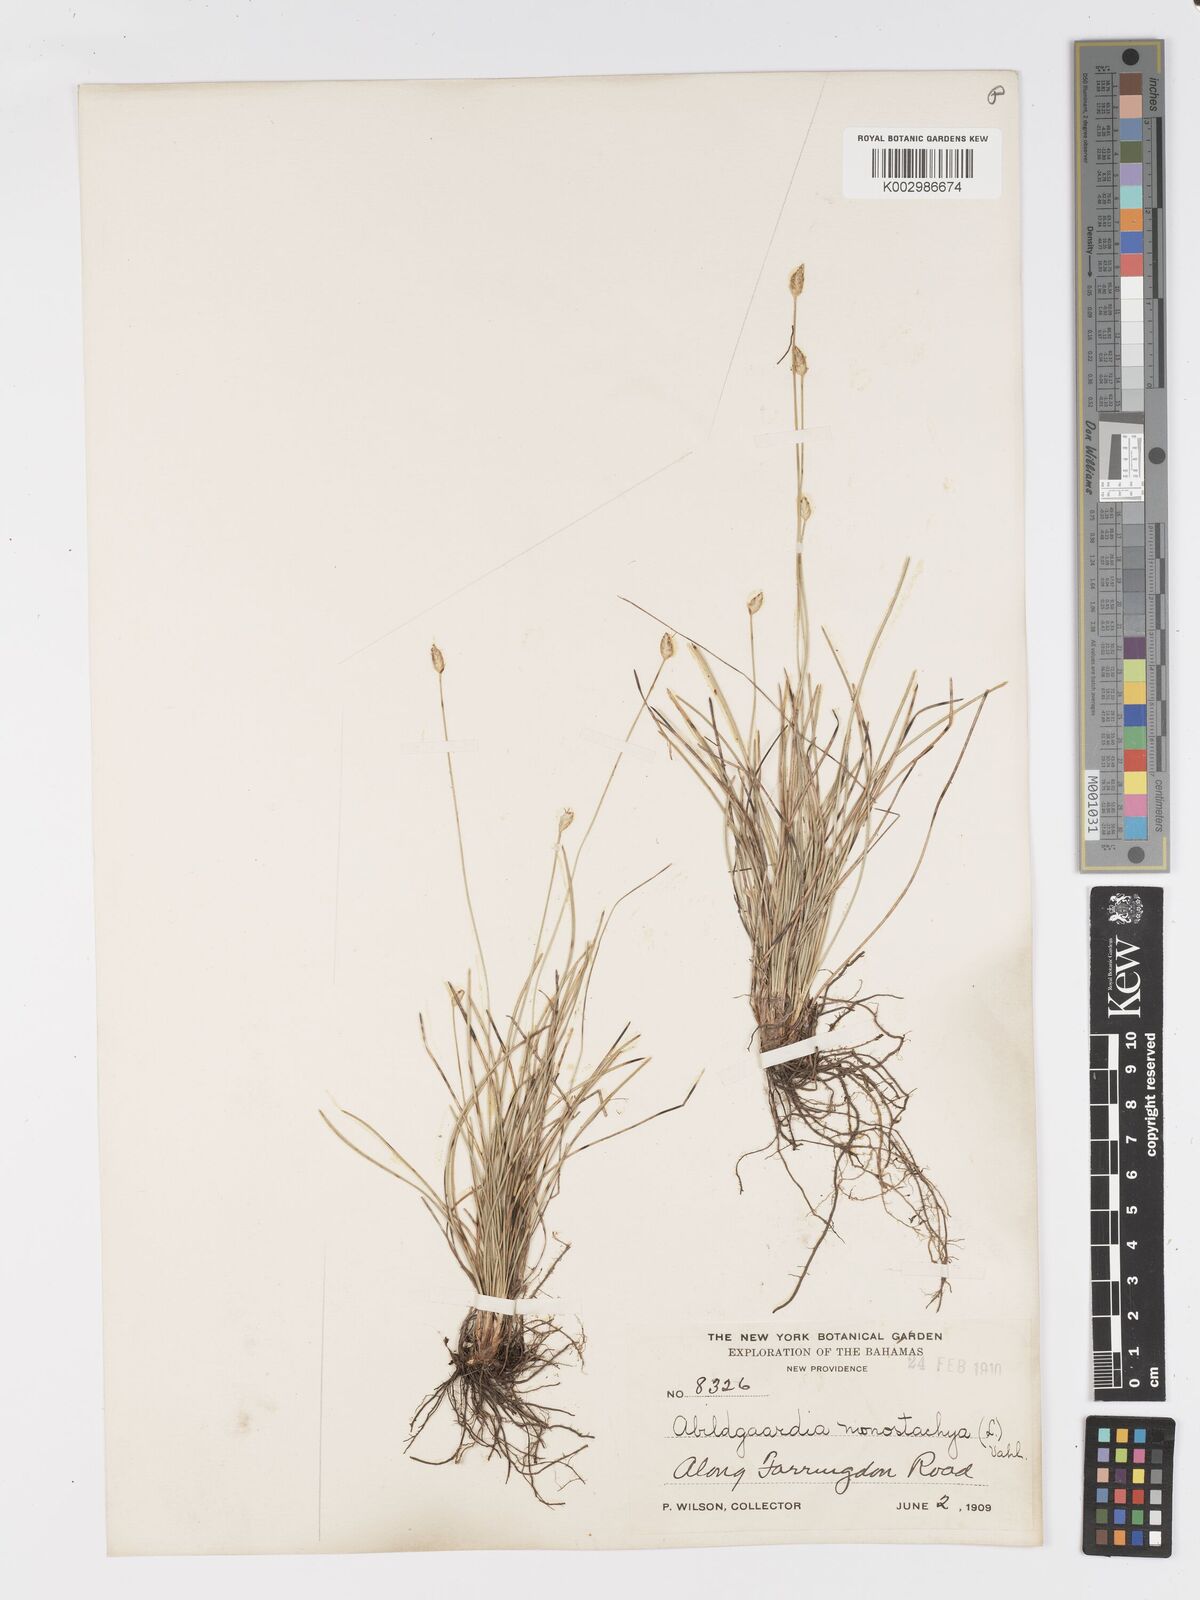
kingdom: Plantae
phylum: Tracheophyta
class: Liliopsida
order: Poales
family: Cyperaceae
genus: Abildgaardia
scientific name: Abildgaardia ovata
